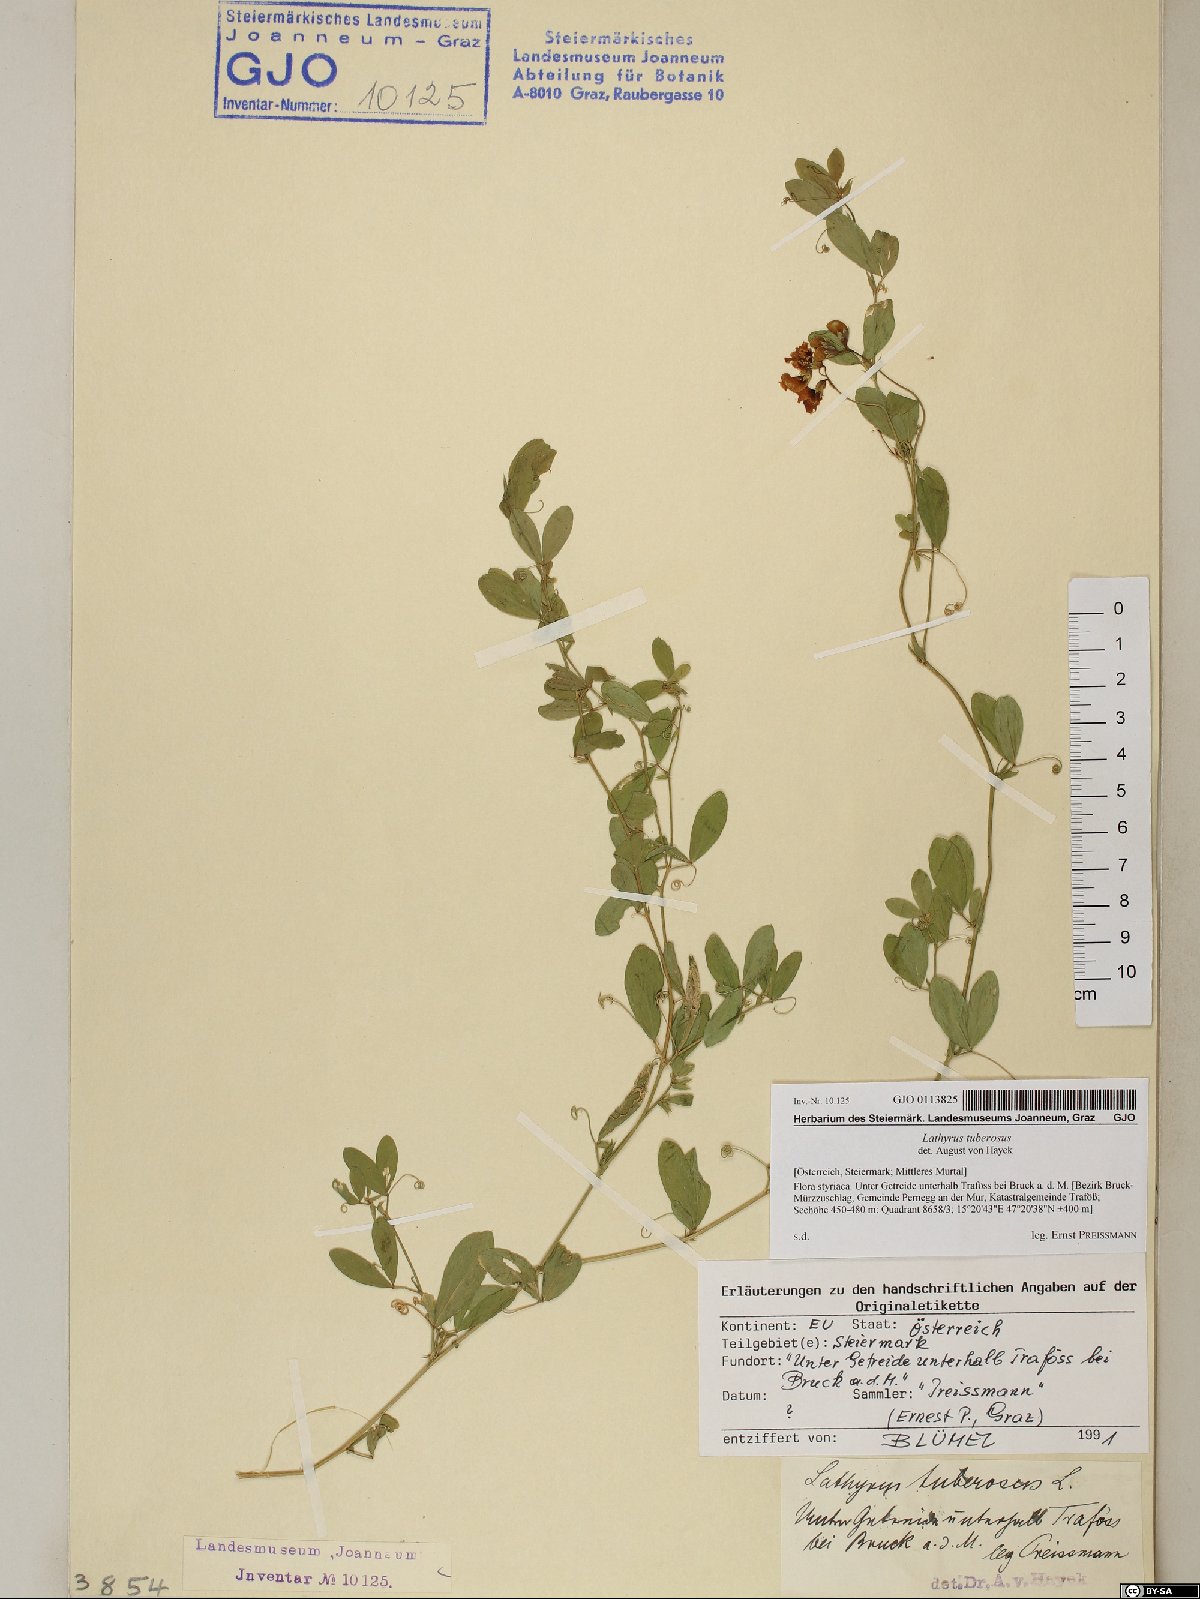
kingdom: Plantae
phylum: Tracheophyta
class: Magnoliopsida
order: Fabales
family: Fabaceae
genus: Lathyrus
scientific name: Lathyrus tuberosus
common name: Tuberous pea
